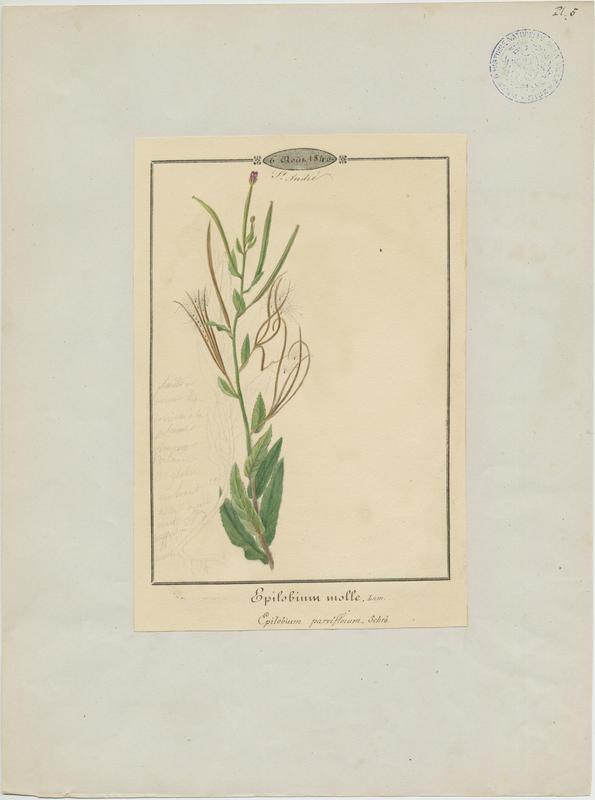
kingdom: Plantae
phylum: Tracheophyta
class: Magnoliopsida
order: Myrtales
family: Onagraceae
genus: Epilobium
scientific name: Epilobium parviflorum
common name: Hoary willowherb
